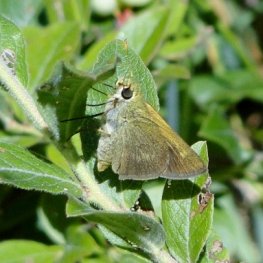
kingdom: Animalia
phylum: Arthropoda
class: Insecta
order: Lepidoptera
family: Hesperiidae
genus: Polites
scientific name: Polites themistocles
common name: Tawny-edged Skipper
